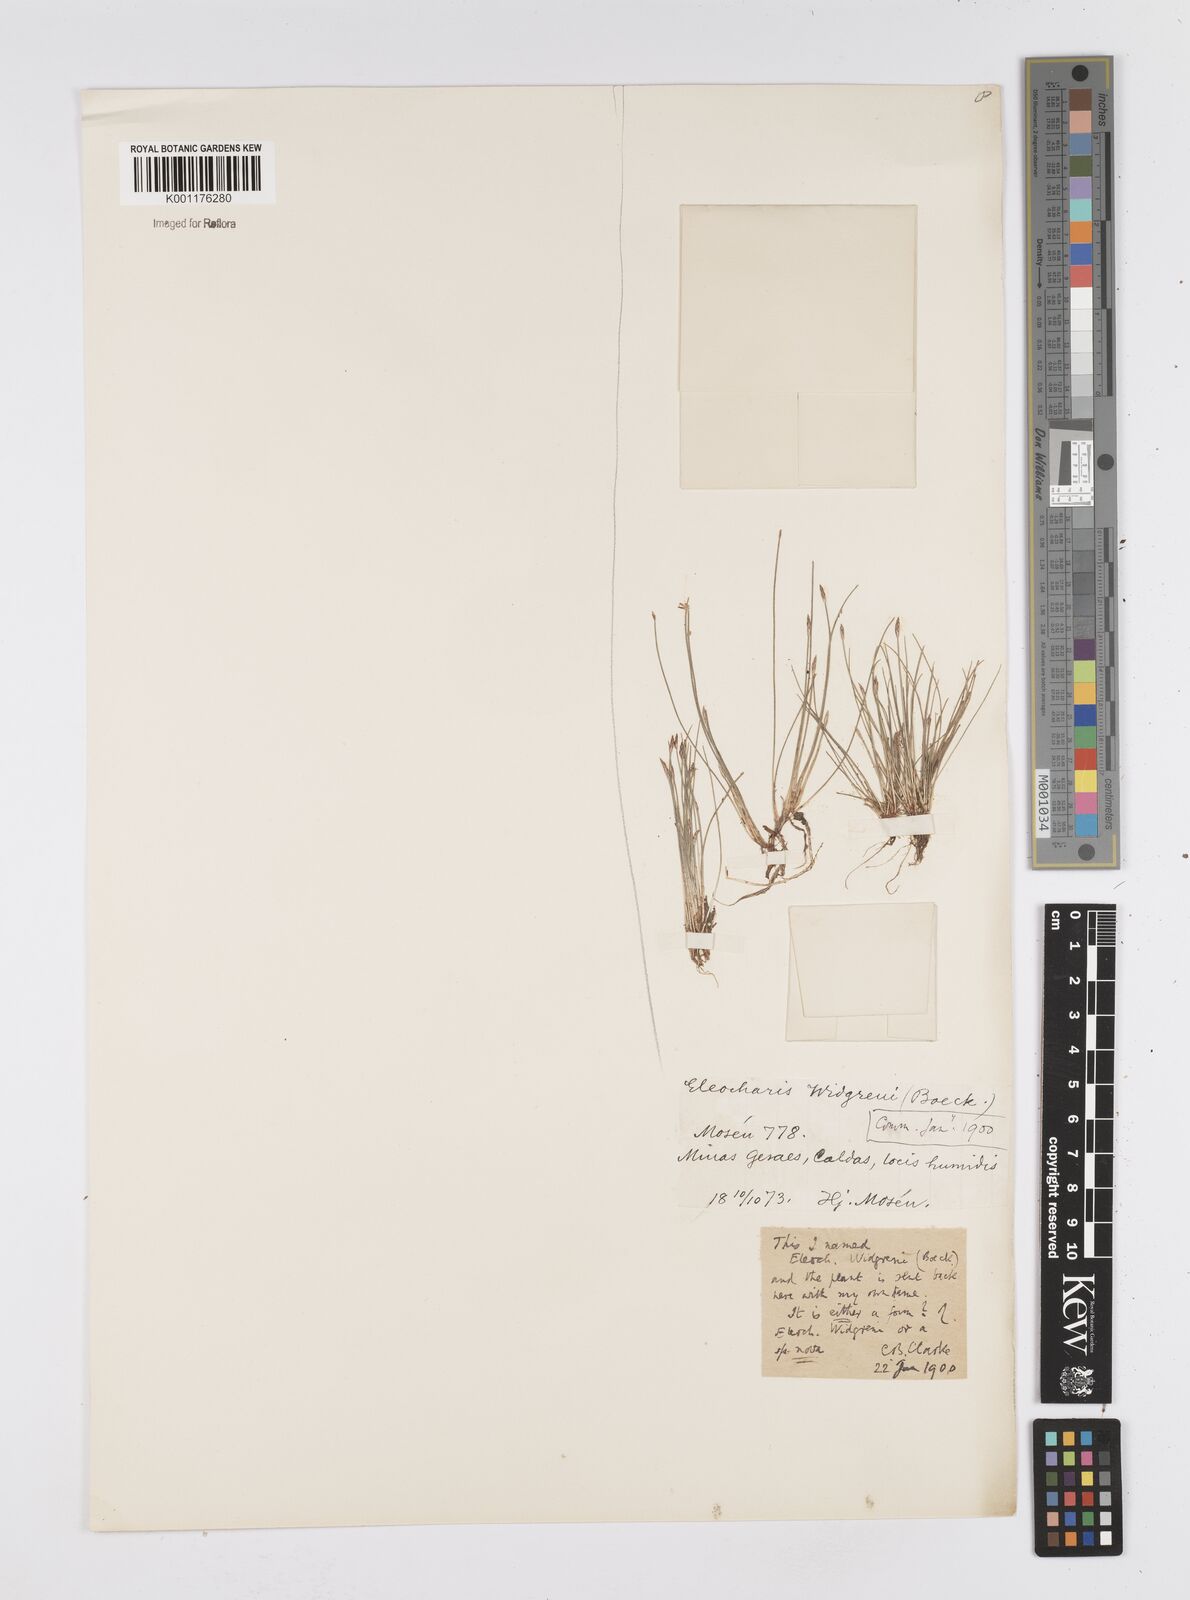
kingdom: Plantae
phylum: Tracheophyta
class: Liliopsida
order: Poales
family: Cyperaceae
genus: Eleocharis
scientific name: Eleocharis subarticulata
